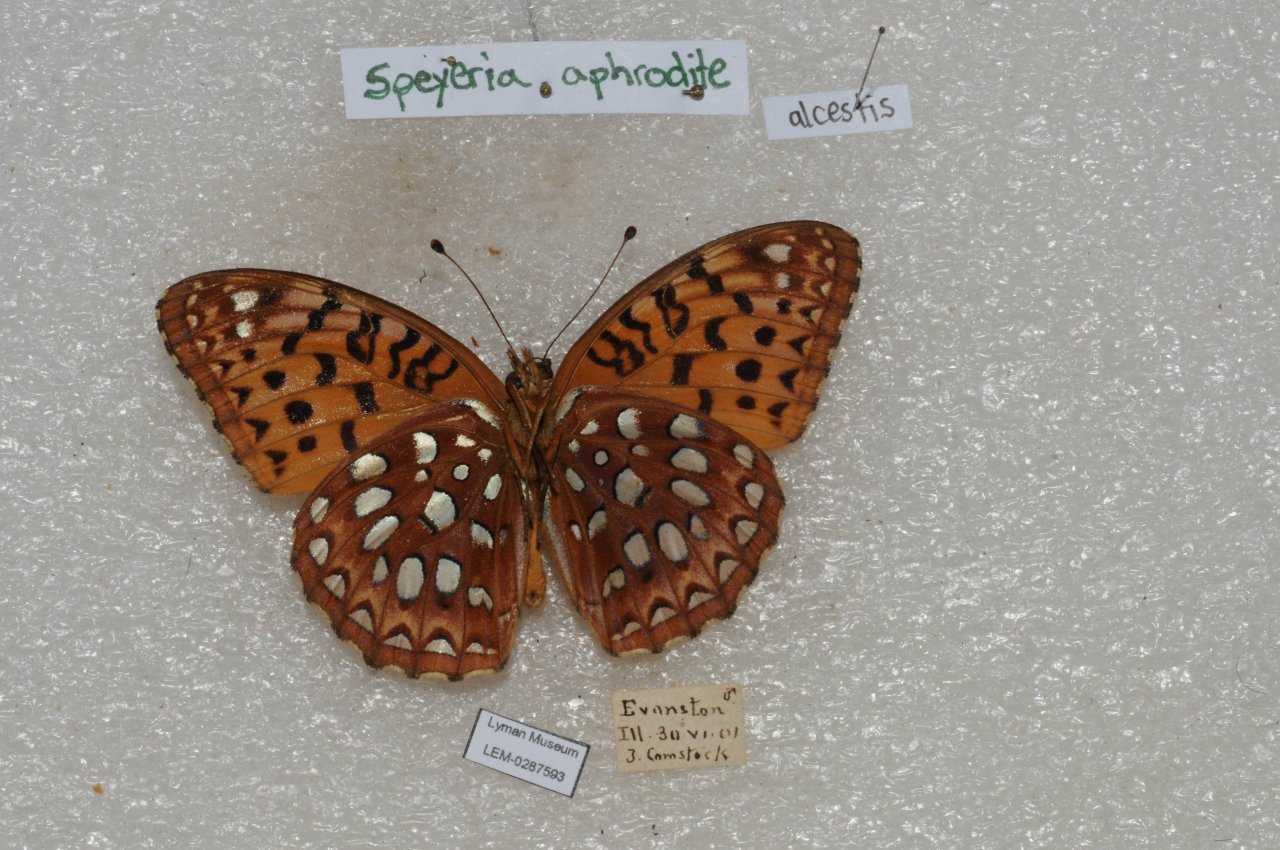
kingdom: Animalia
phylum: Arthropoda
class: Insecta
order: Lepidoptera
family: Nymphalidae
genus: Speyeria
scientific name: Speyeria aphrodite
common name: Aphrodite Fritillary
